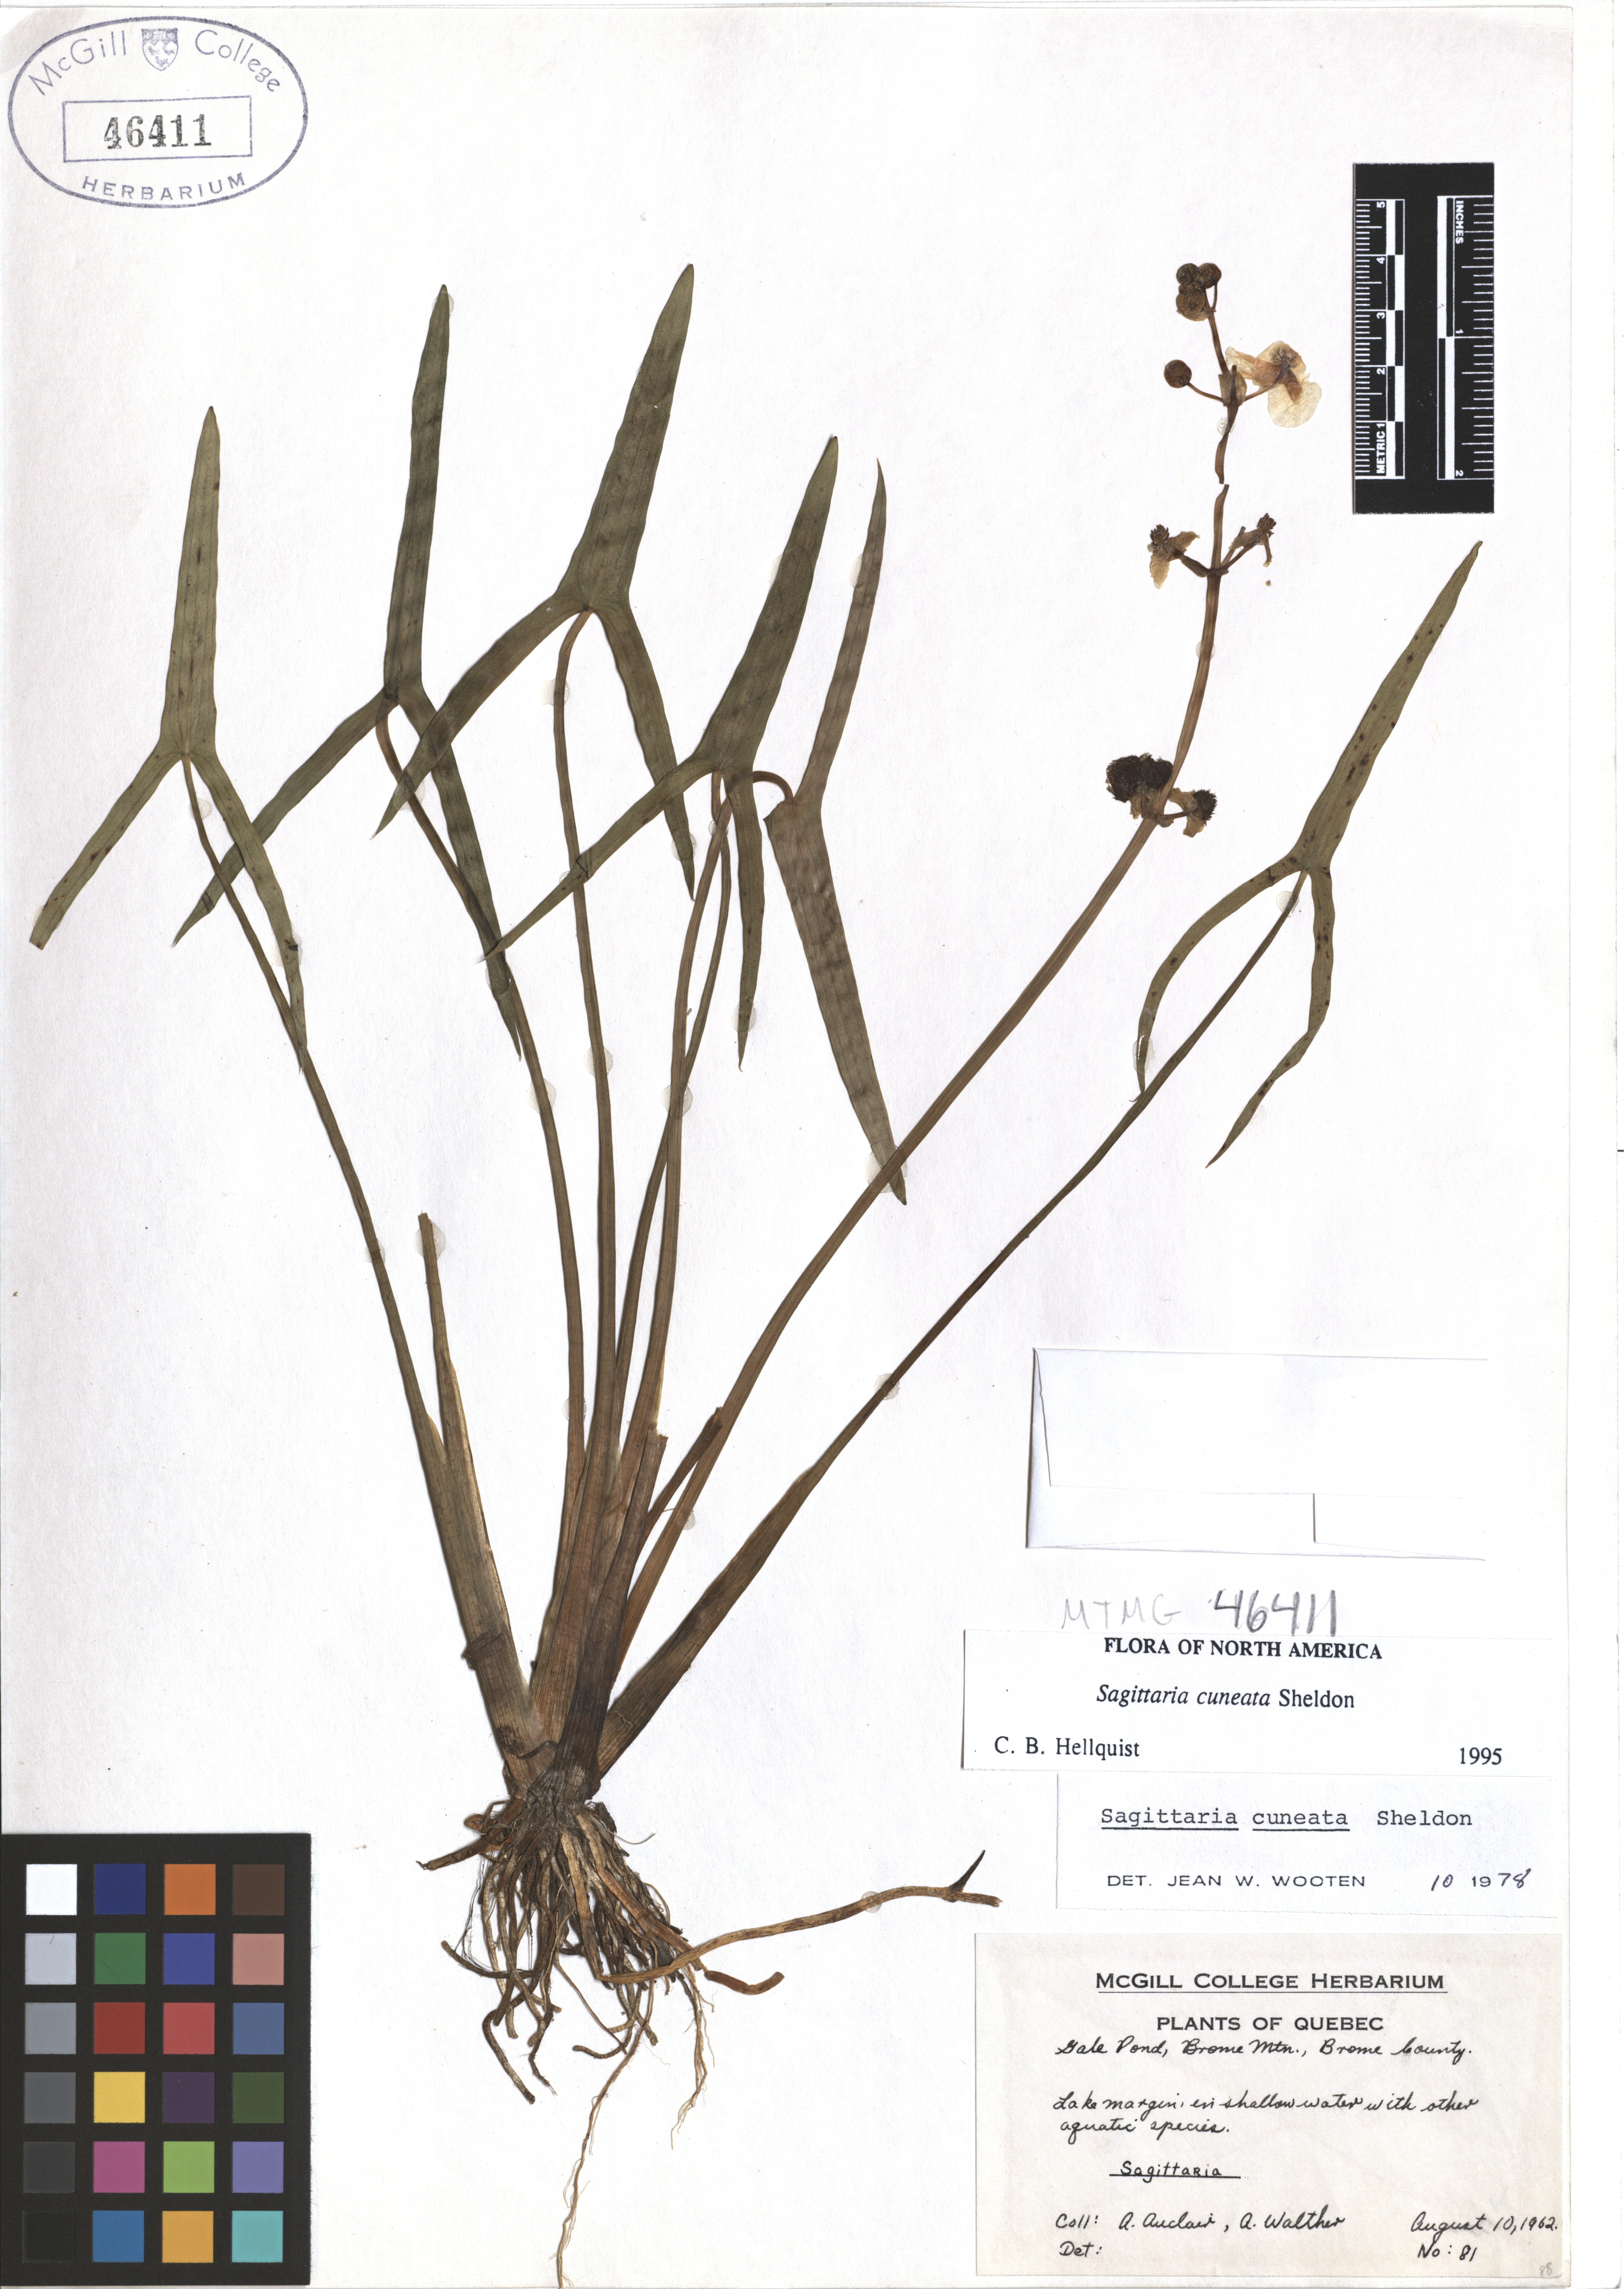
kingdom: Plantae
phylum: Tracheophyta
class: Liliopsida
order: Alismatales
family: Alismataceae
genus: Sagittaria
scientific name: Sagittaria cuneata
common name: Northern arrowhead
